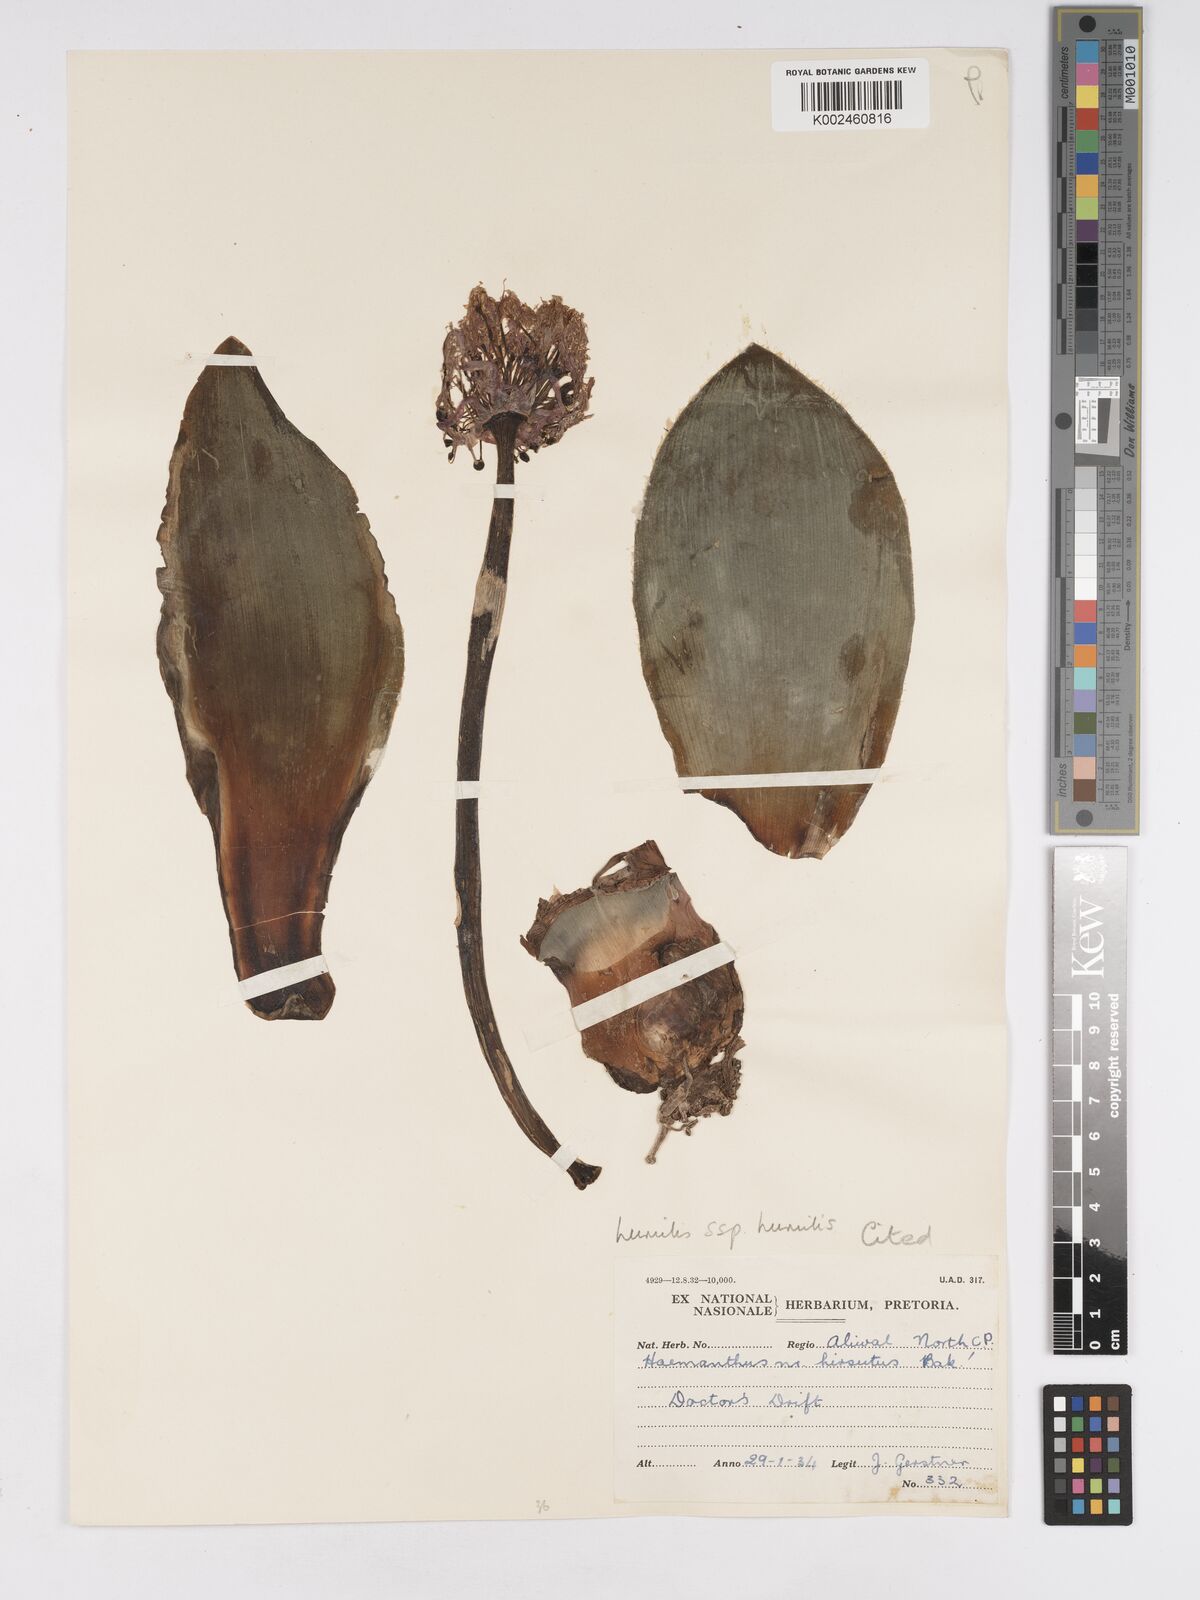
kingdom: Plantae
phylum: Tracheophyta
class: Liliopsida
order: Asparagales
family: Amaryllidaceae
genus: Haemanthus
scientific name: Haemanthus humilis
